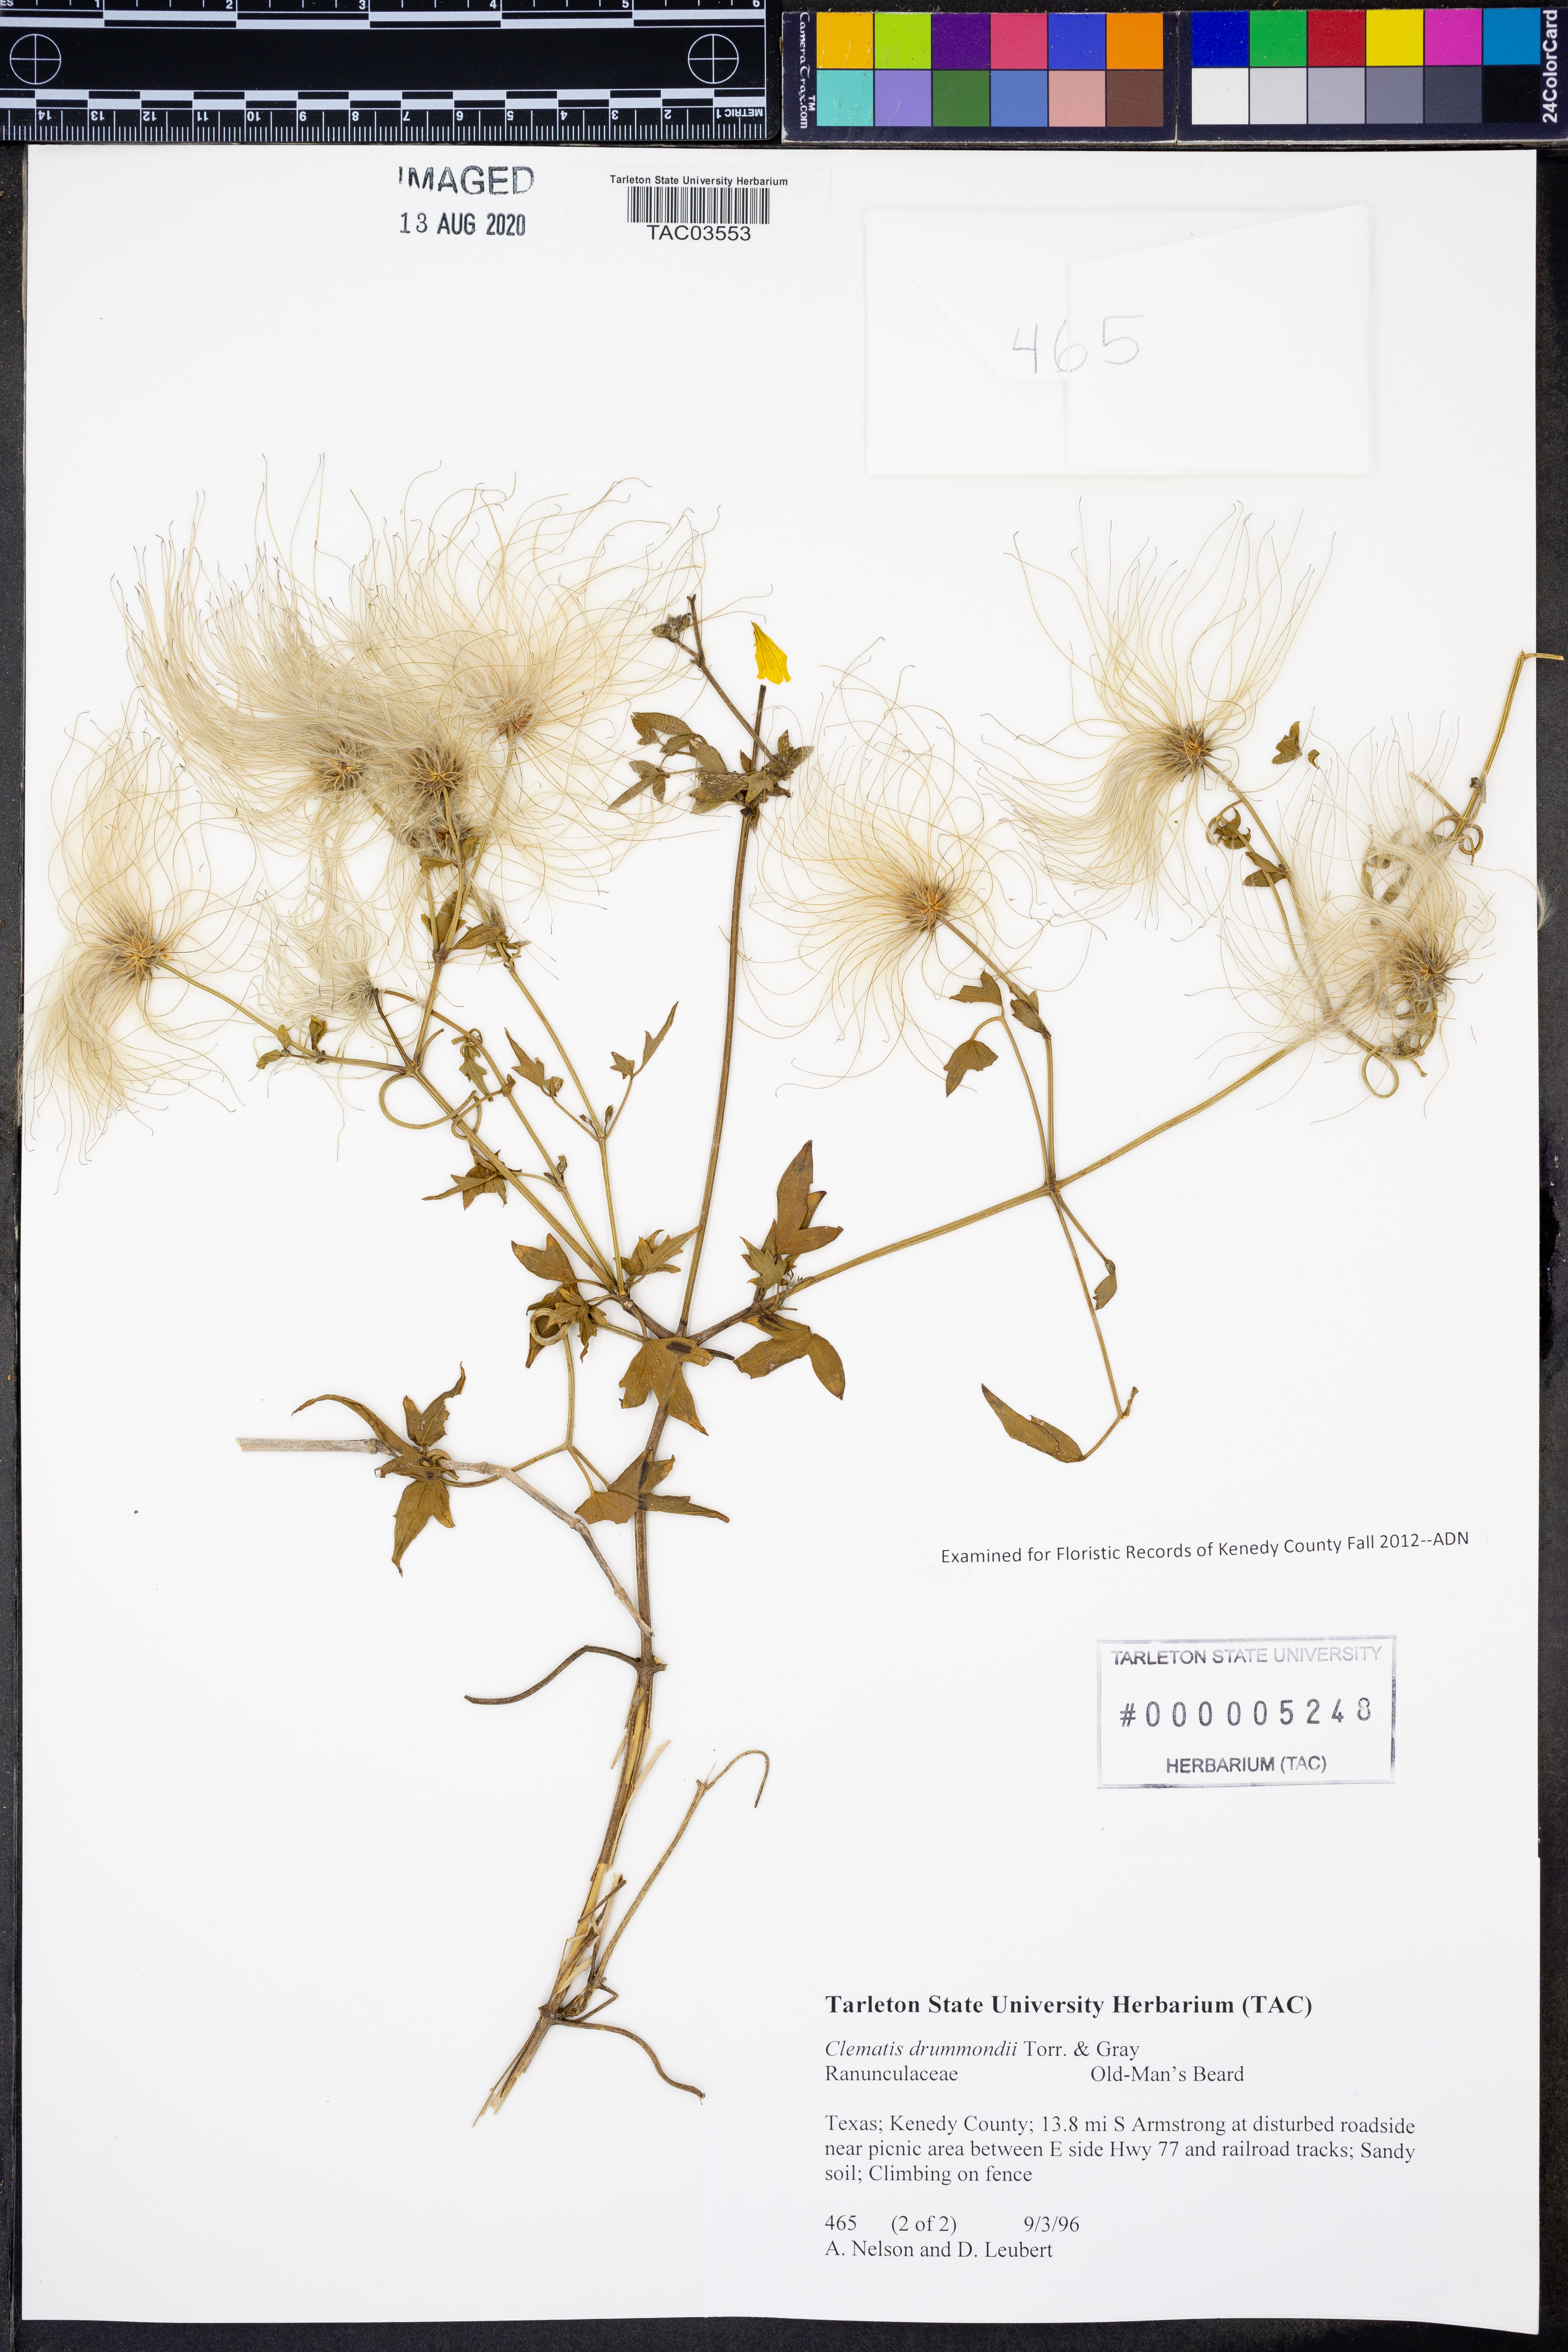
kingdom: Plantae
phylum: Tracheophyta
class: Magnoliopsida
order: Ranunculales
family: Ranunculaceae
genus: Clematis
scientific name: Clematis drummondii
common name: Texas virgin's bower
